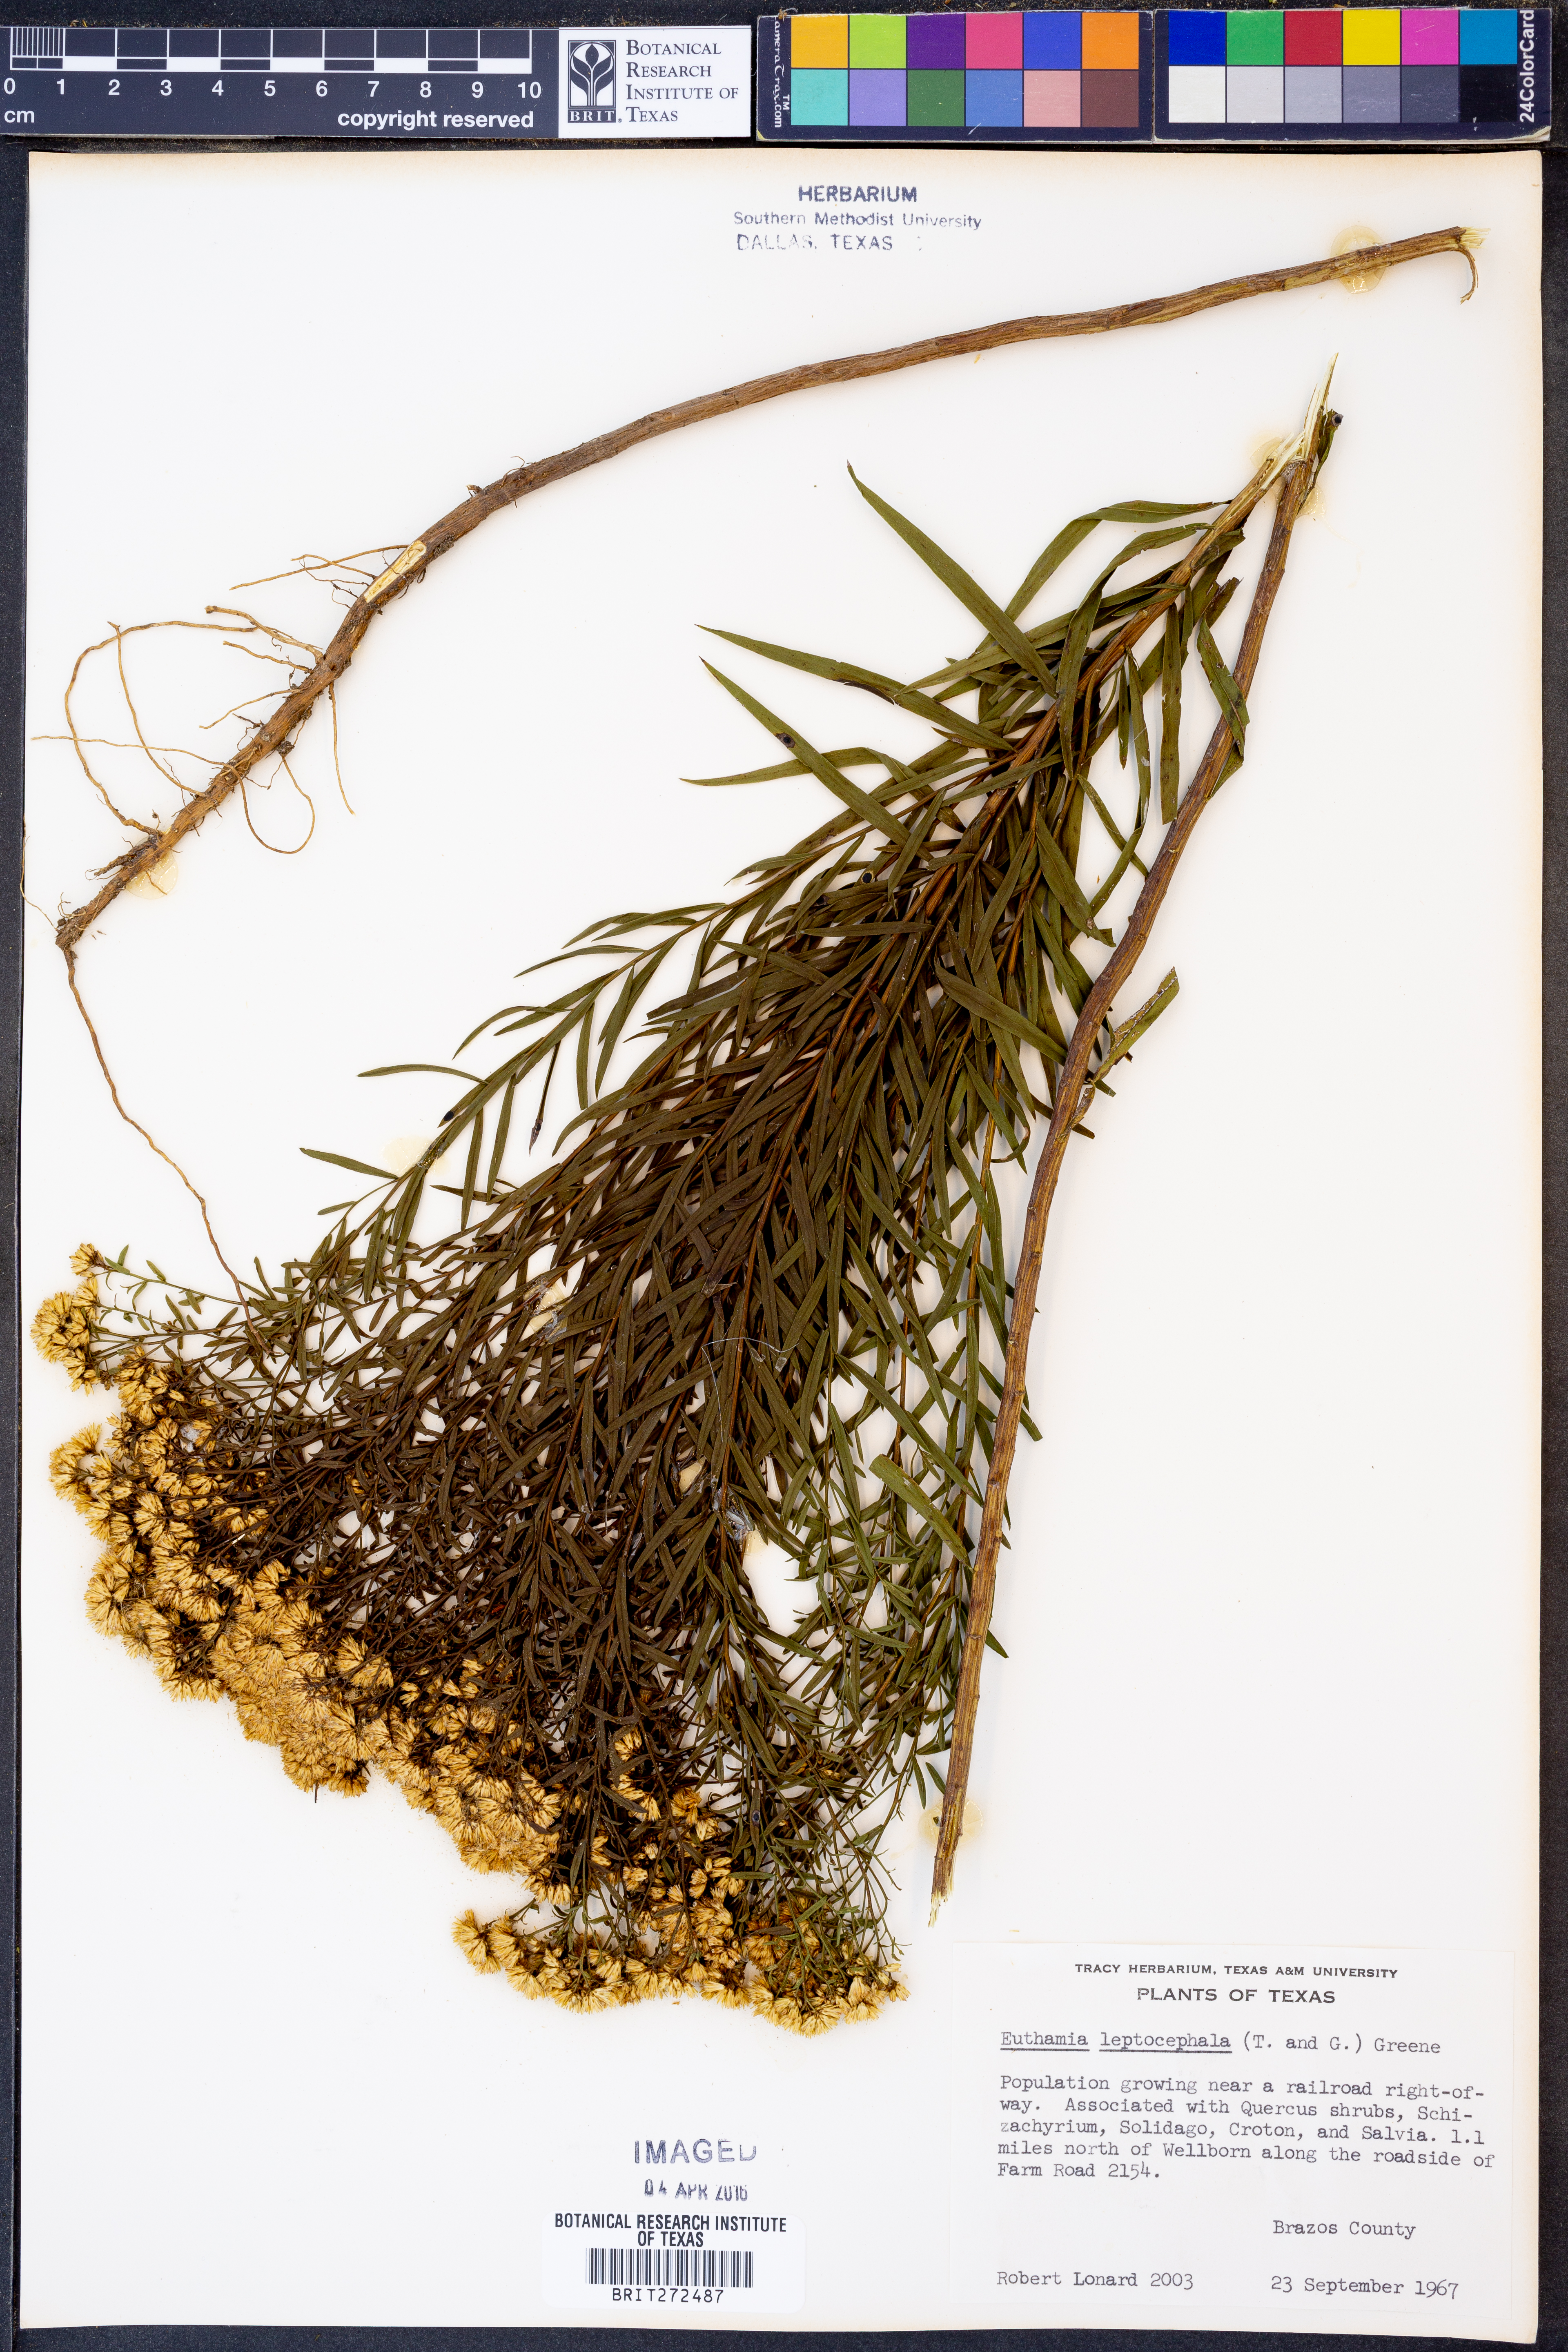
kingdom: Plantae
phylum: Tracheophyta
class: Magnoliopsida
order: Asterales
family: Asteraceae
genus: Euthamia
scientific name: Euthamia leptocephala
